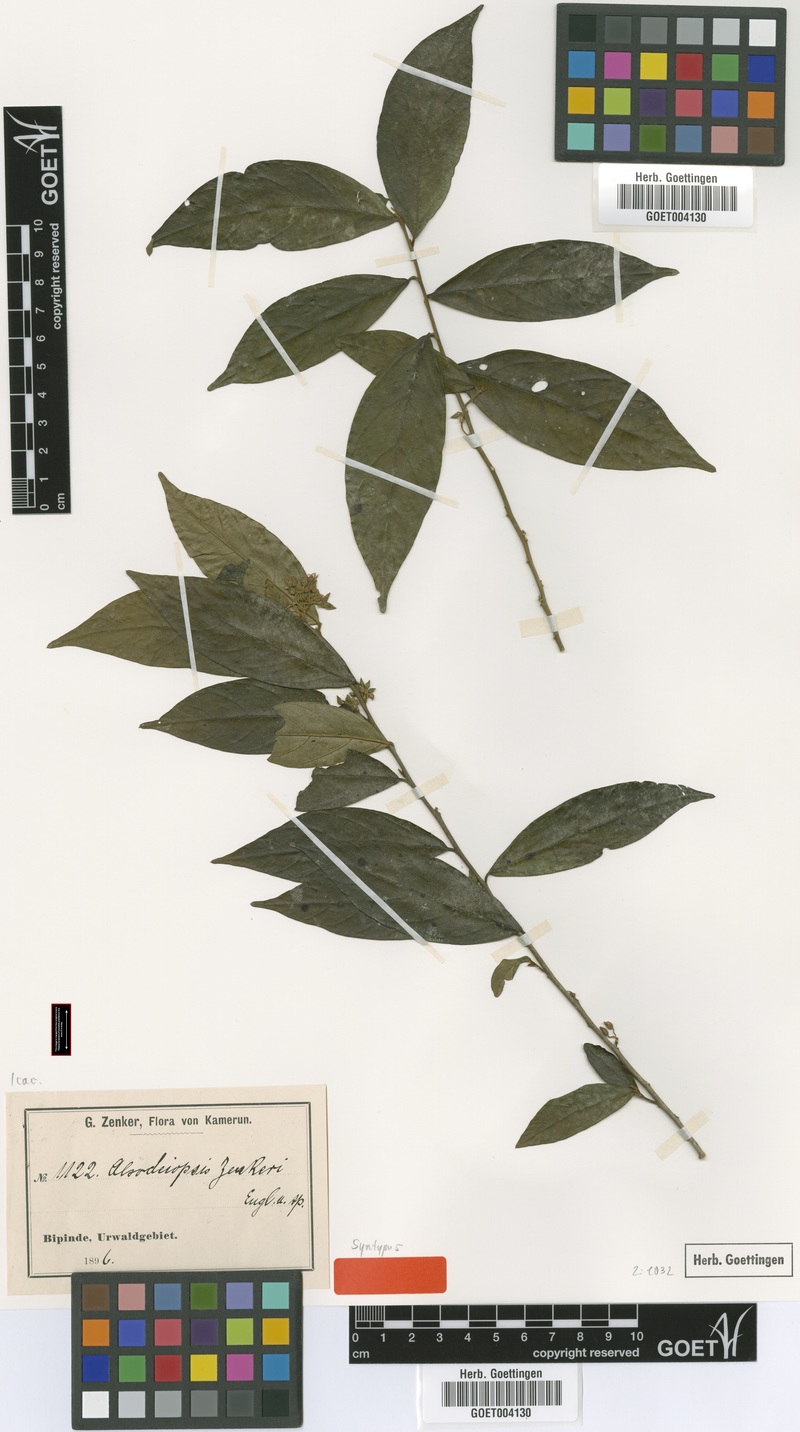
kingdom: Plantae
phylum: Tracheophyta
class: Magnoliopsida
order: Icacinales
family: Icacinaceae
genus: Alsodeiopsis
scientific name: Alsodeiopsis zenkeri
